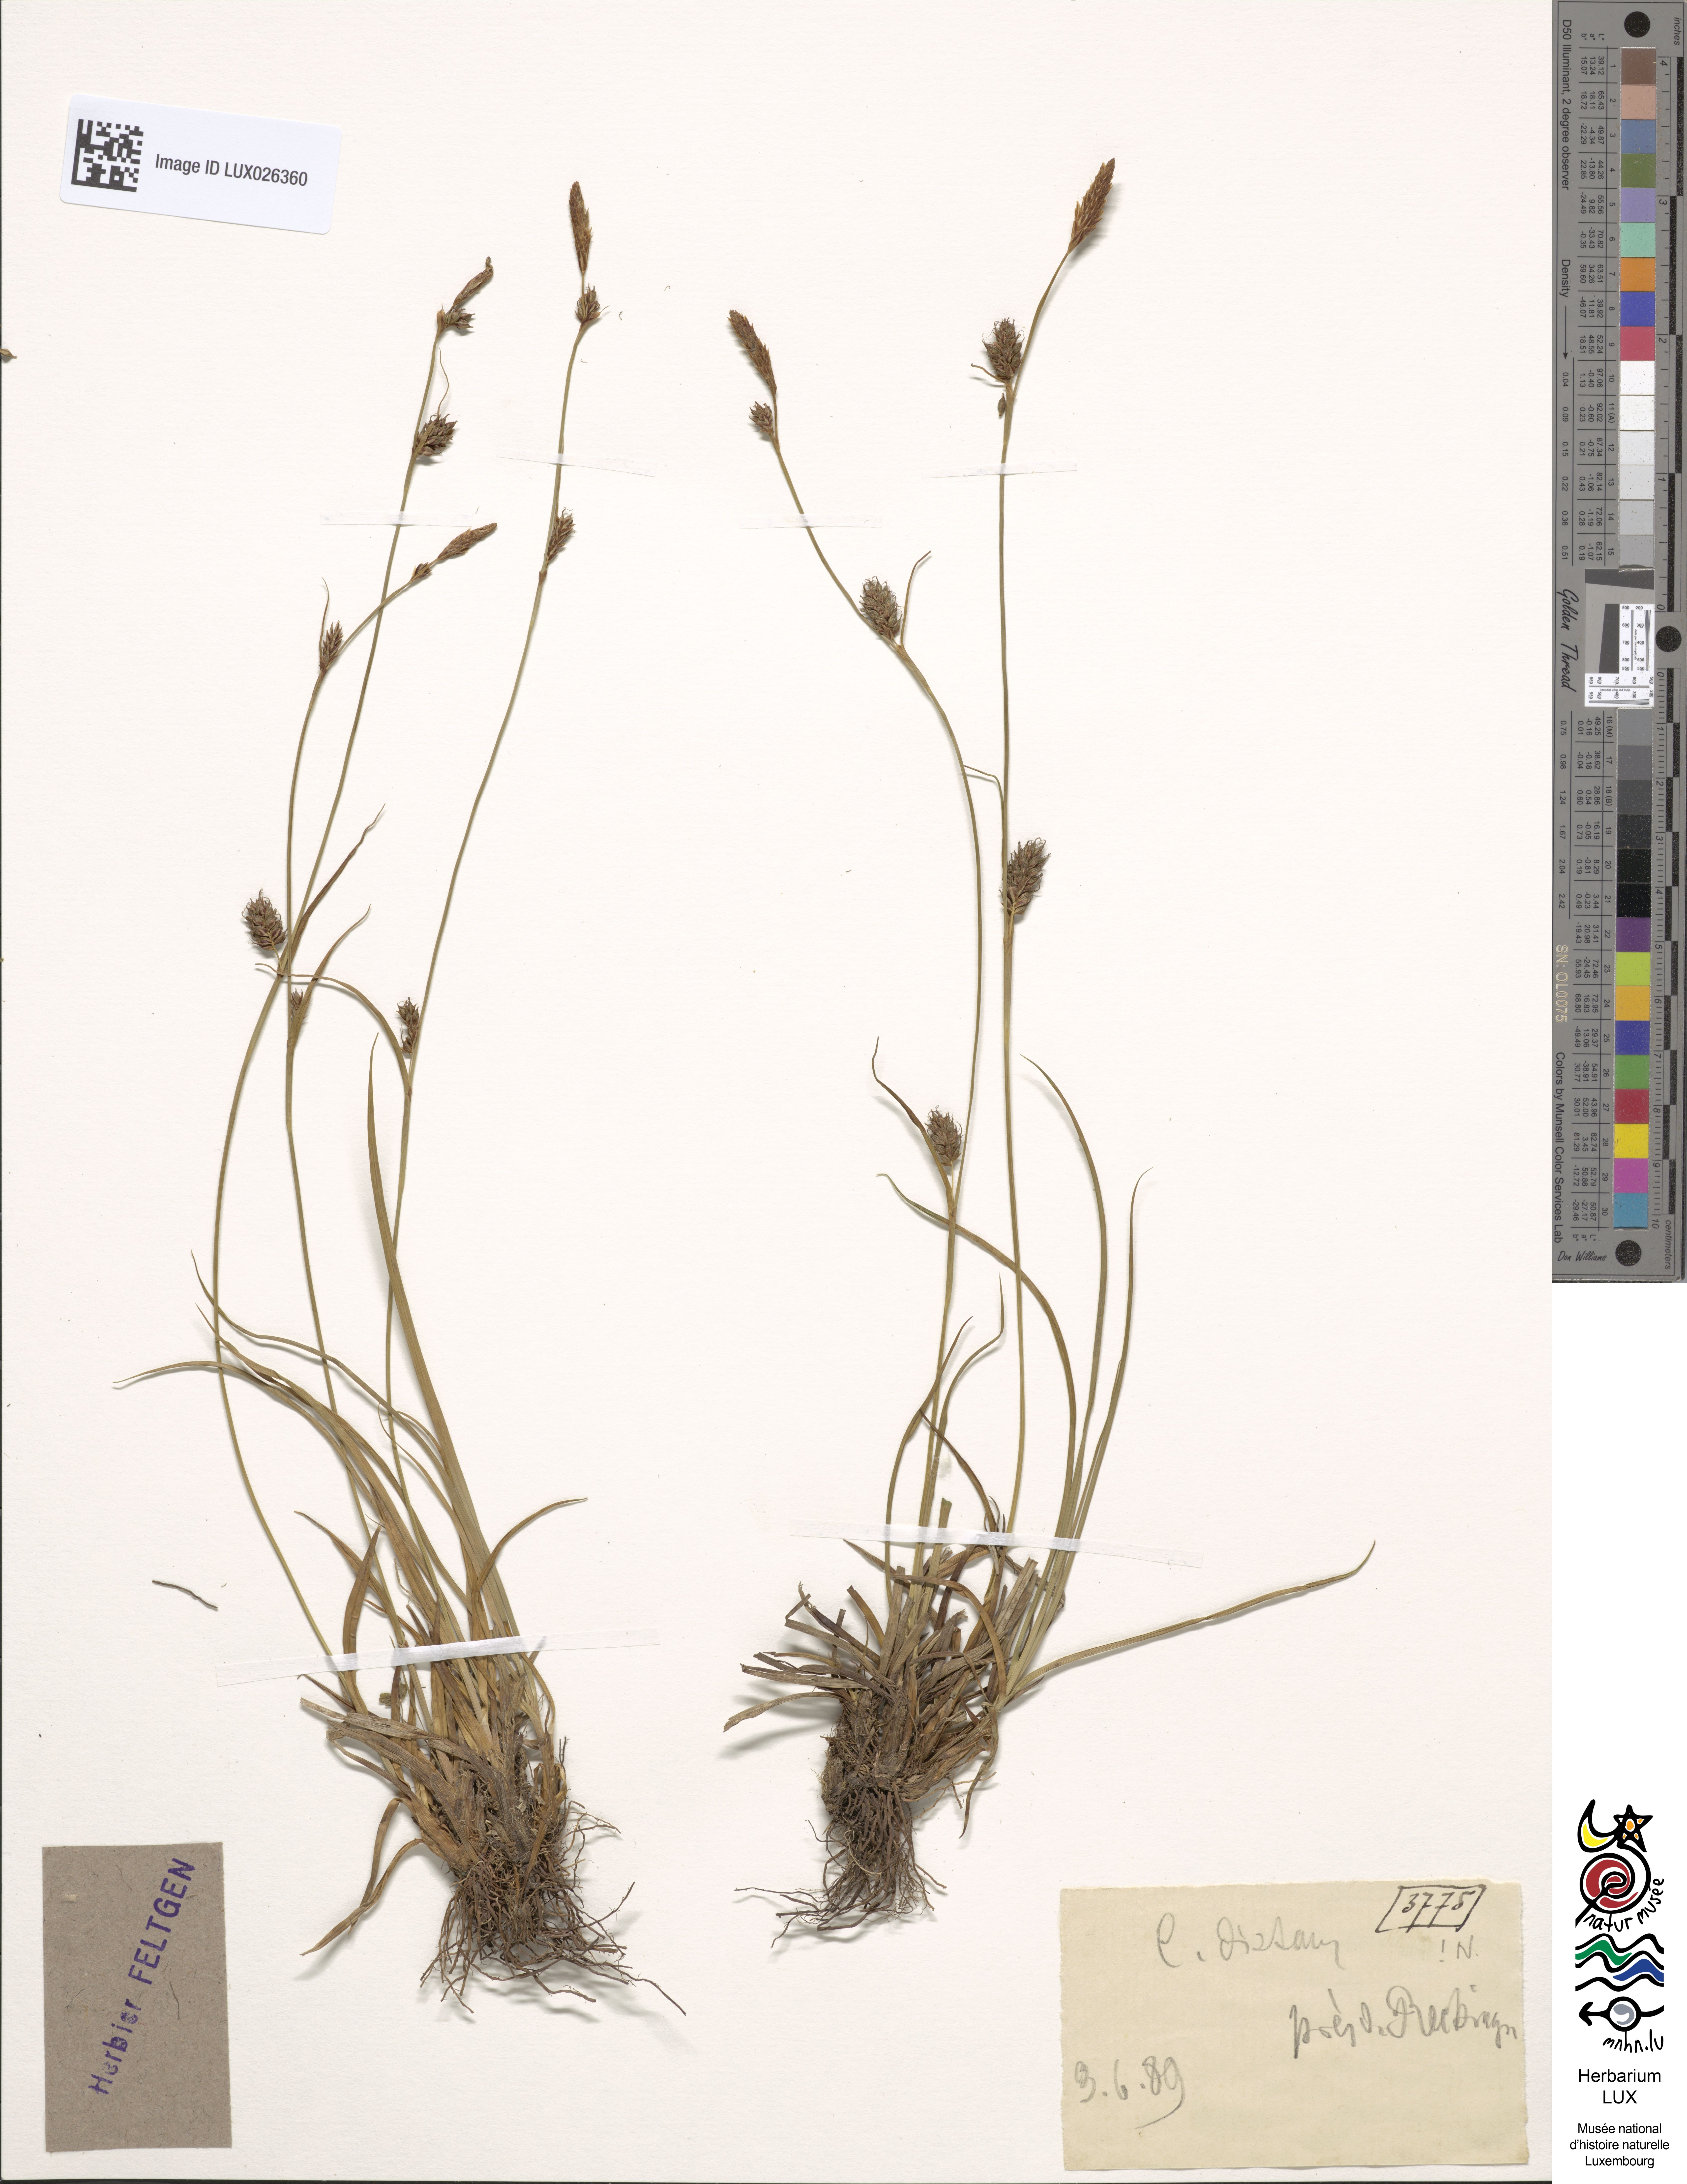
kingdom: Plantae
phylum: Tracheophyta
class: Liliopsida
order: Poales
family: Cyperaceae
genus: Carex
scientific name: Carex distans
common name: Distant sedge
